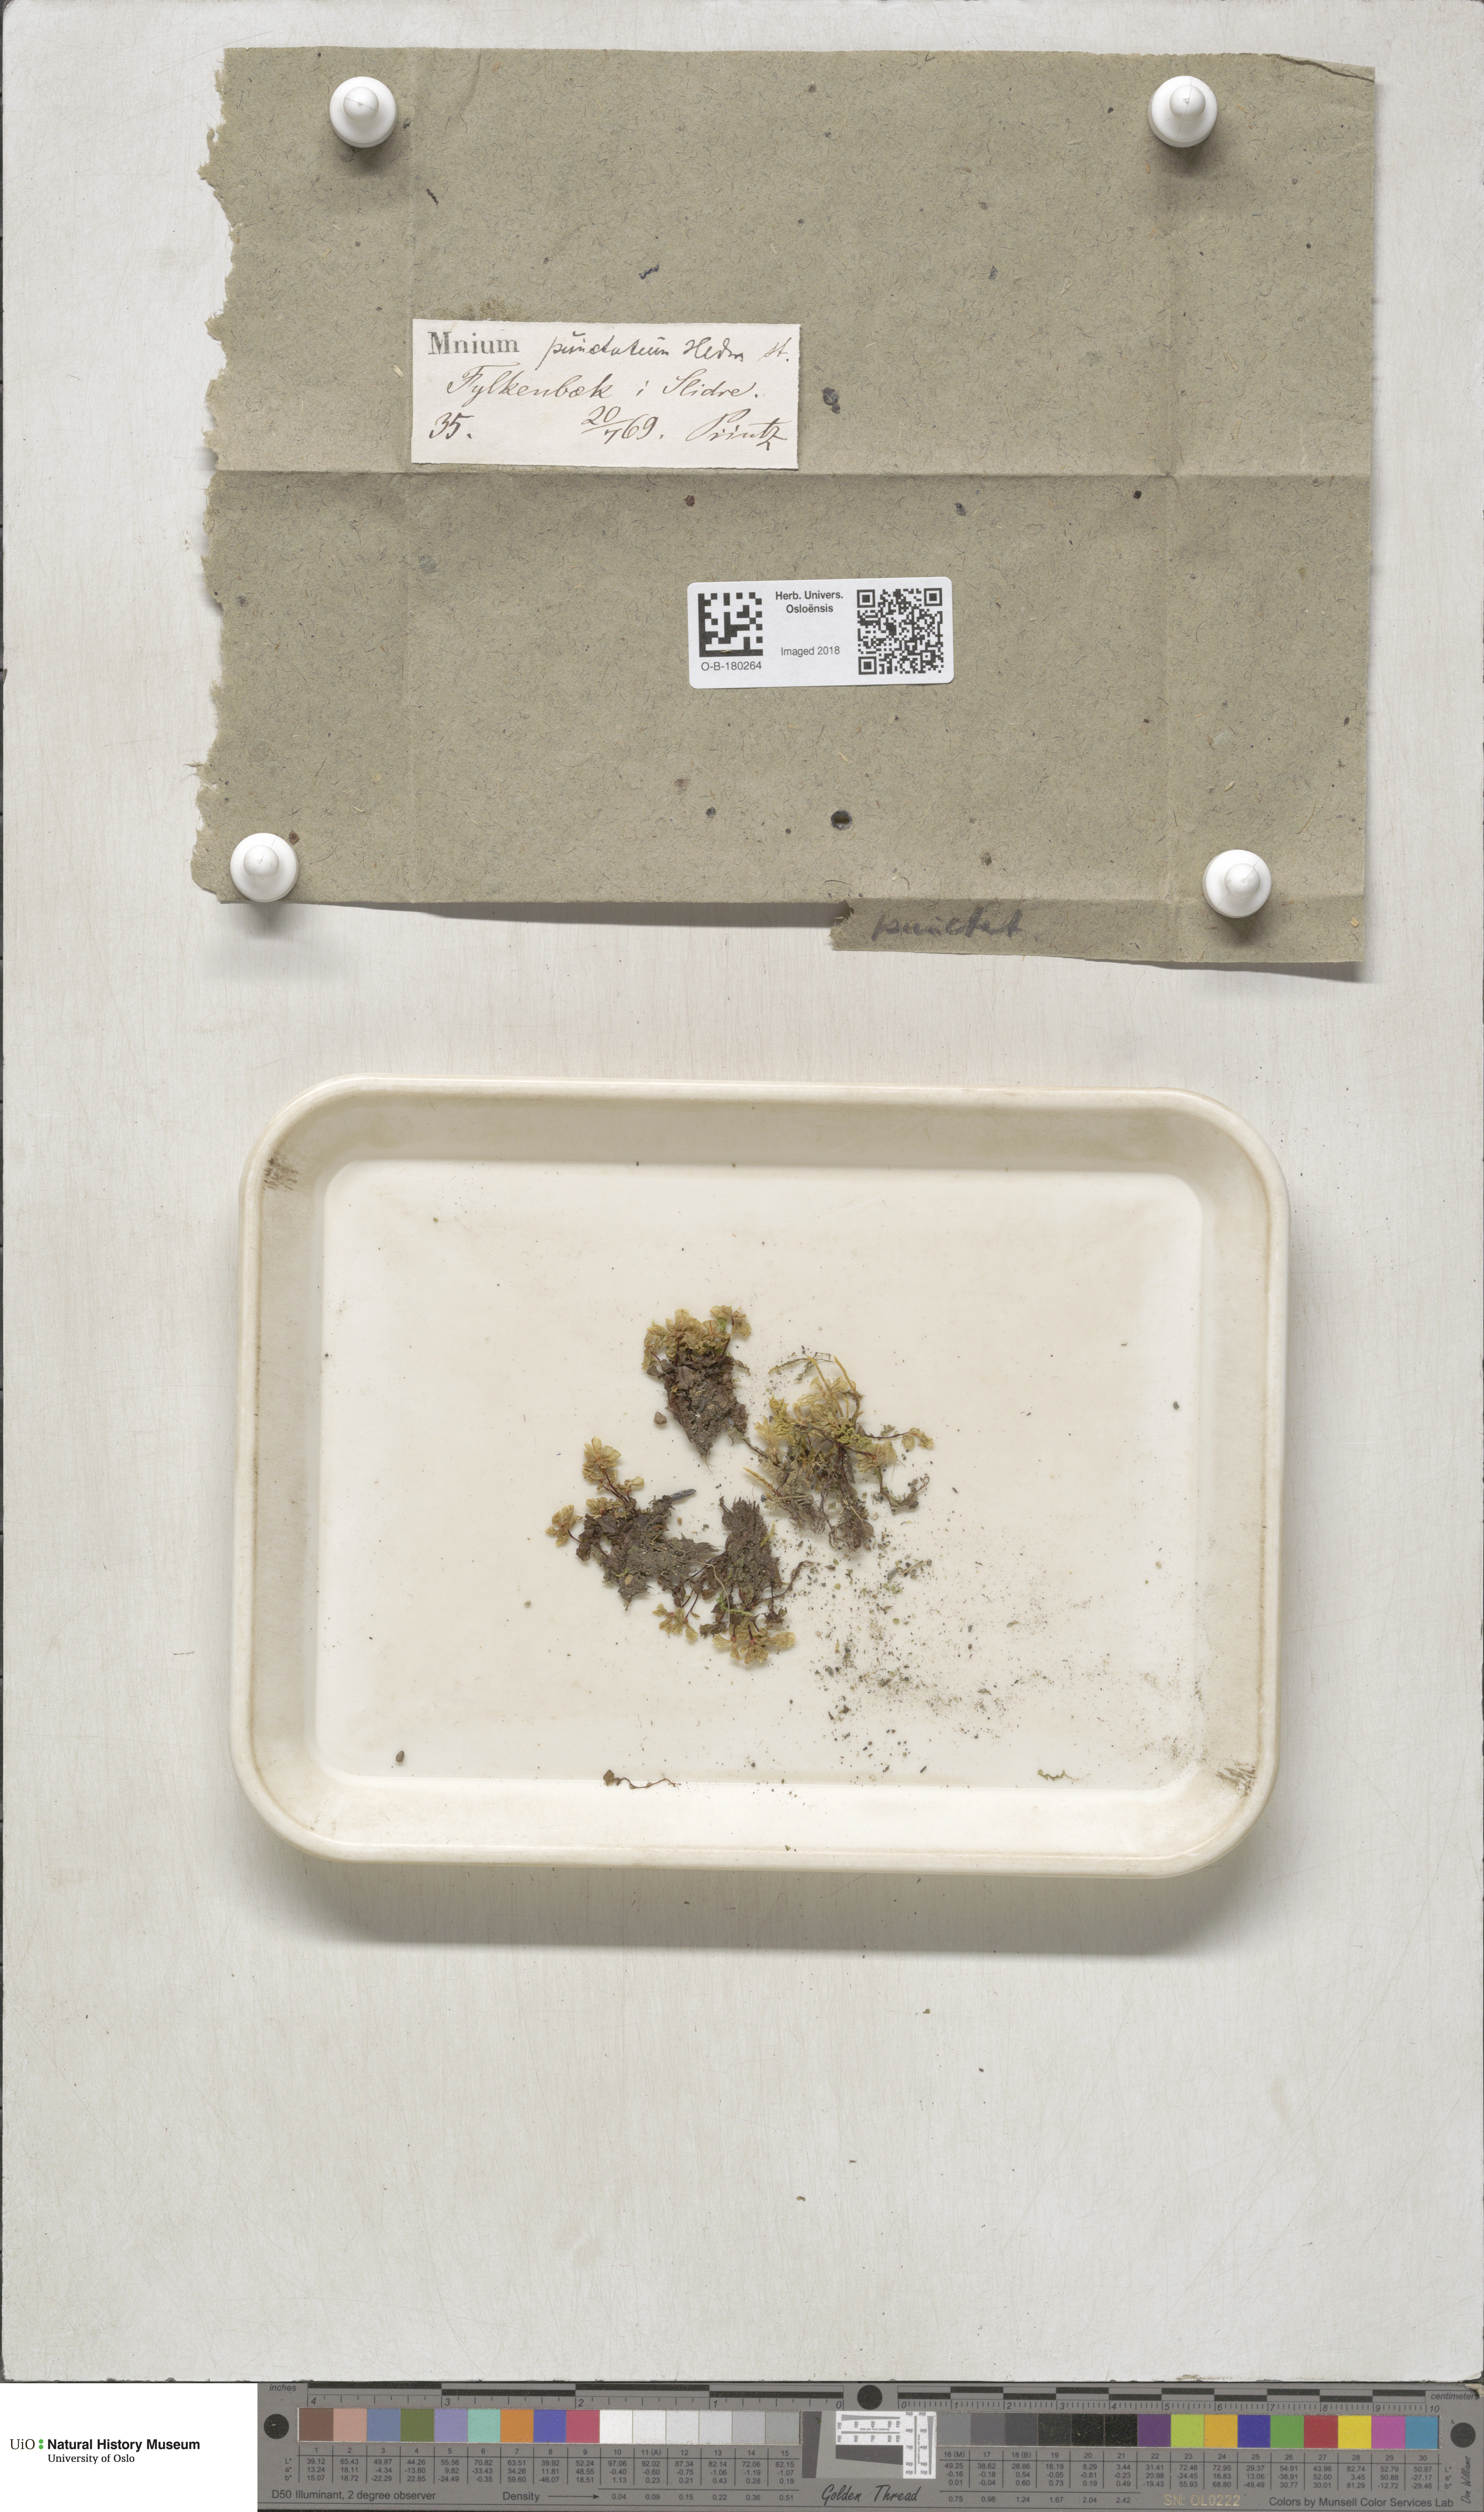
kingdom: Plantae
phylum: Bryophyta
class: Bryopsida
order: Bryales
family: Mniaceae
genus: Rhizomnium
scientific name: Rhizomnium punctatum
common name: Dotted leafy moss
